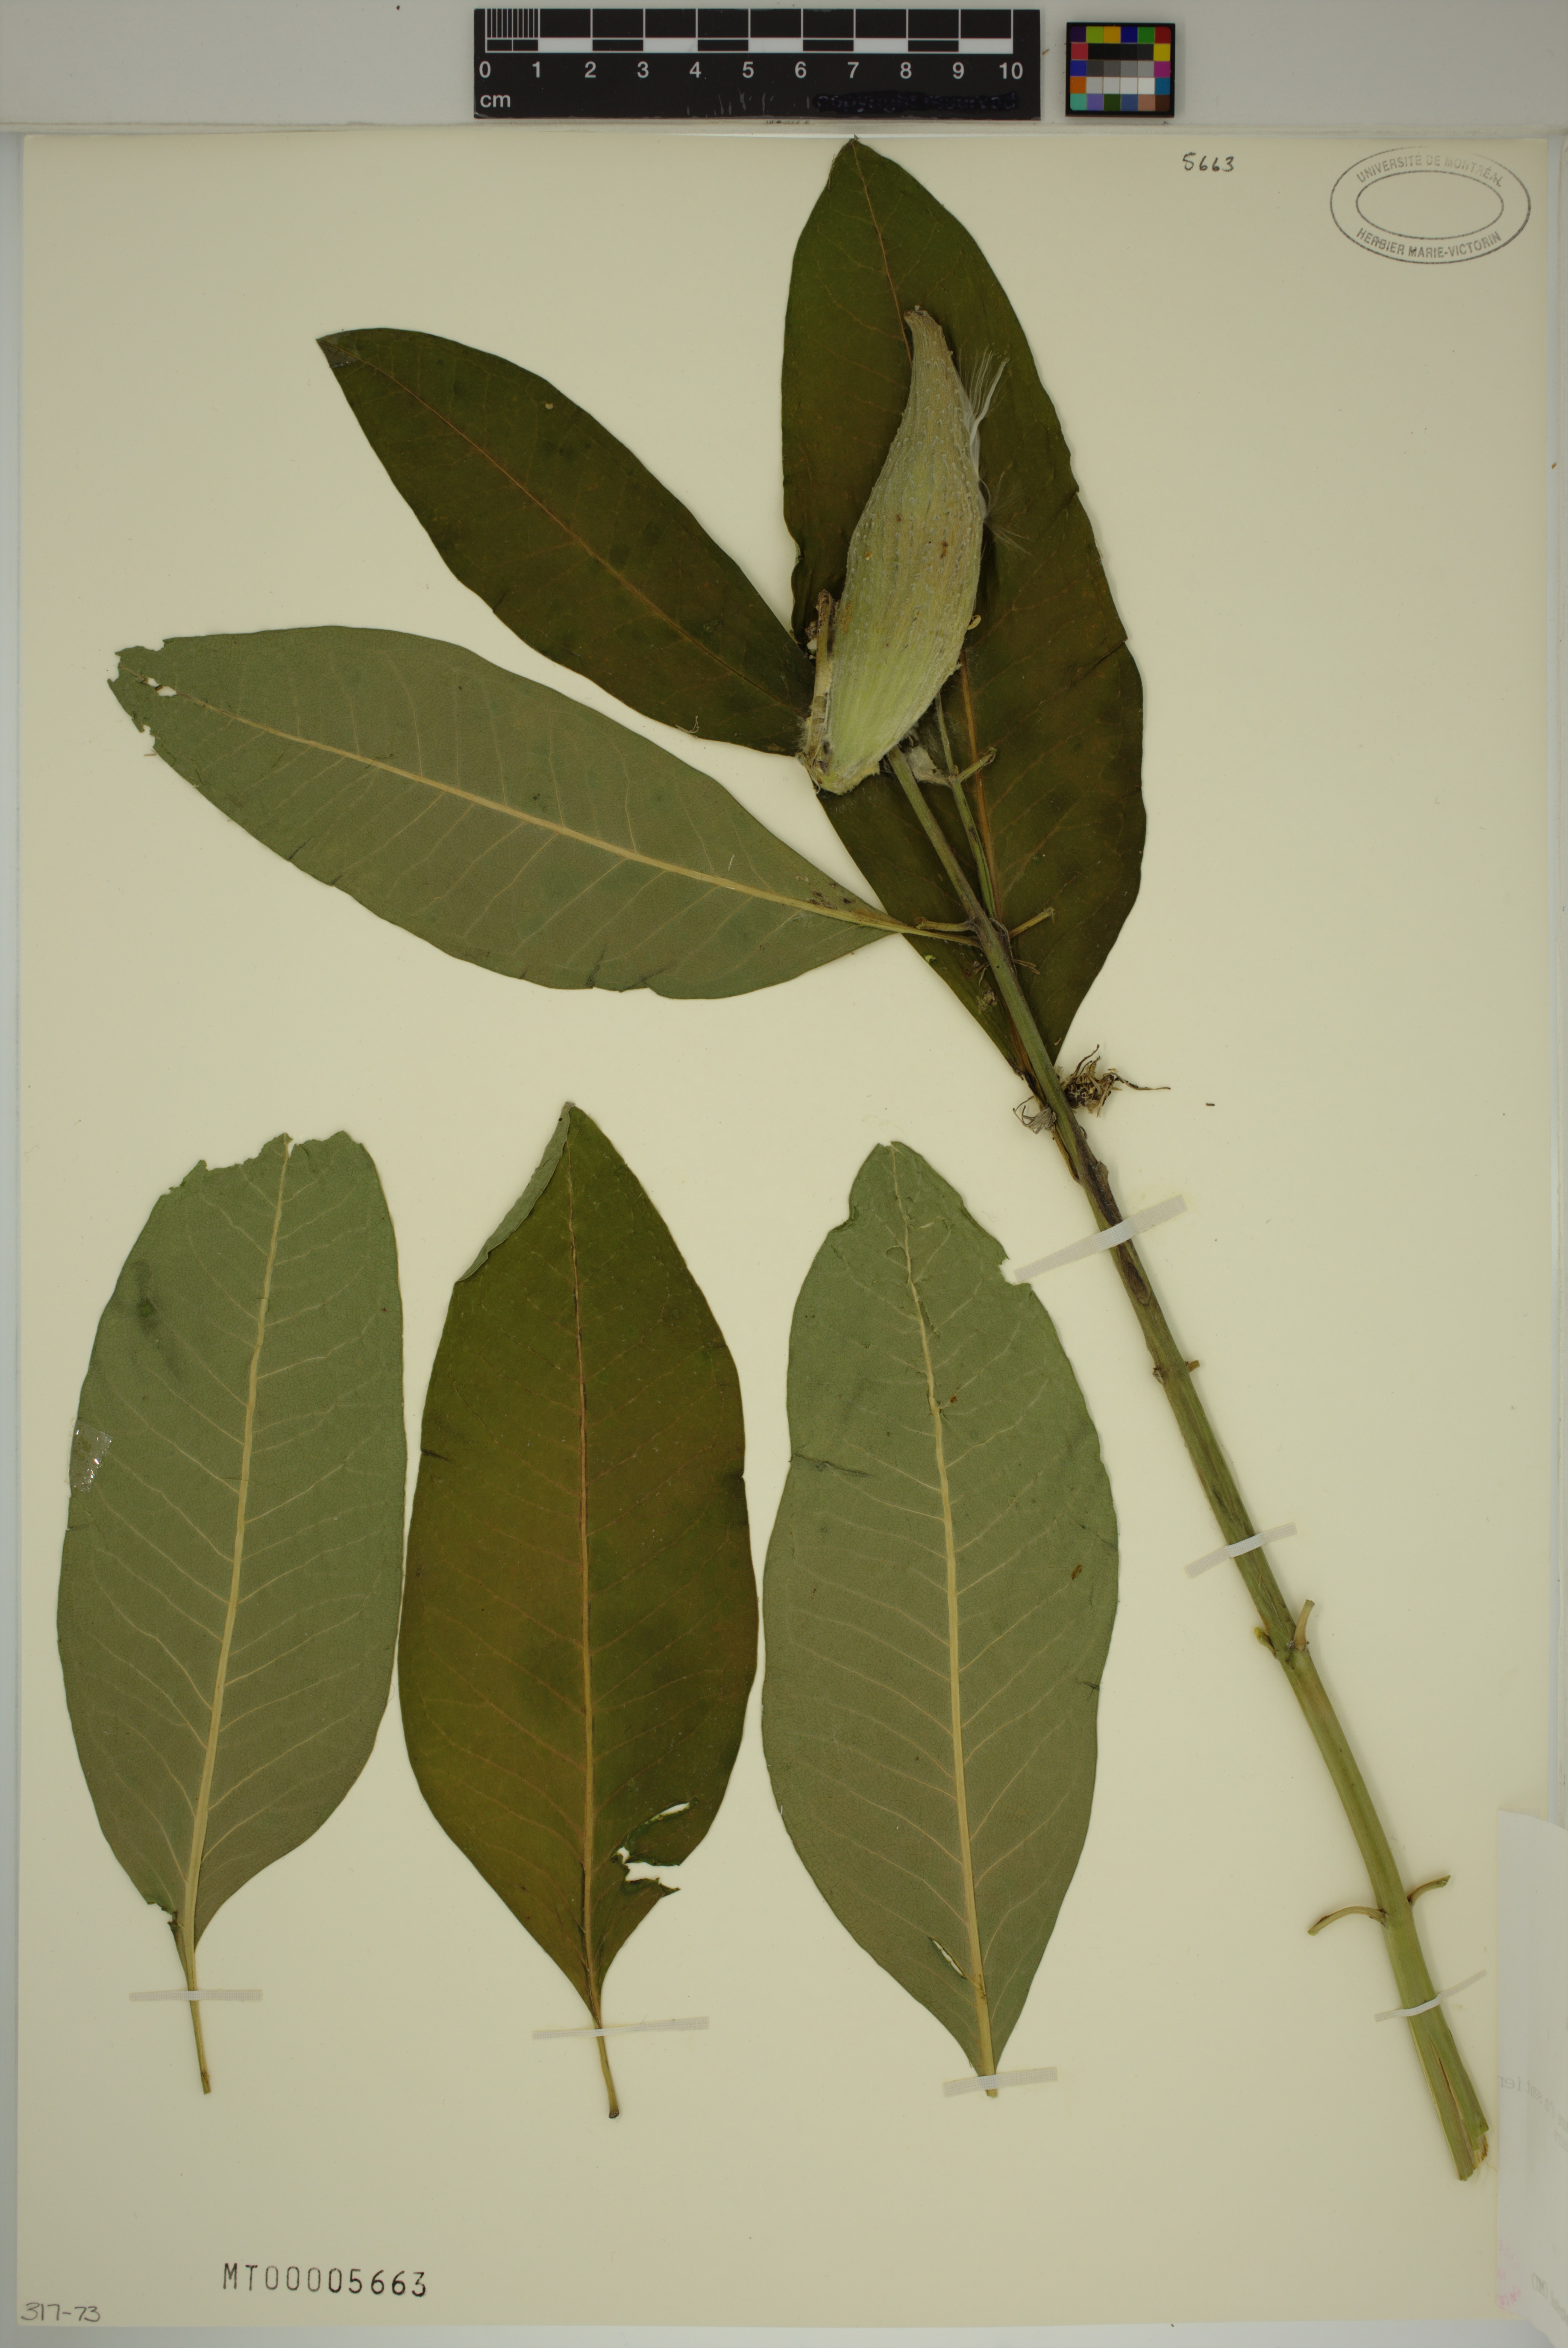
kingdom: Plantae
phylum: Tracheophyta
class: Magnoliopsida
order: Gentianales
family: Apocynaceae
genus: Asclepias
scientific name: Asclepias syriaca
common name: Common milkweed
